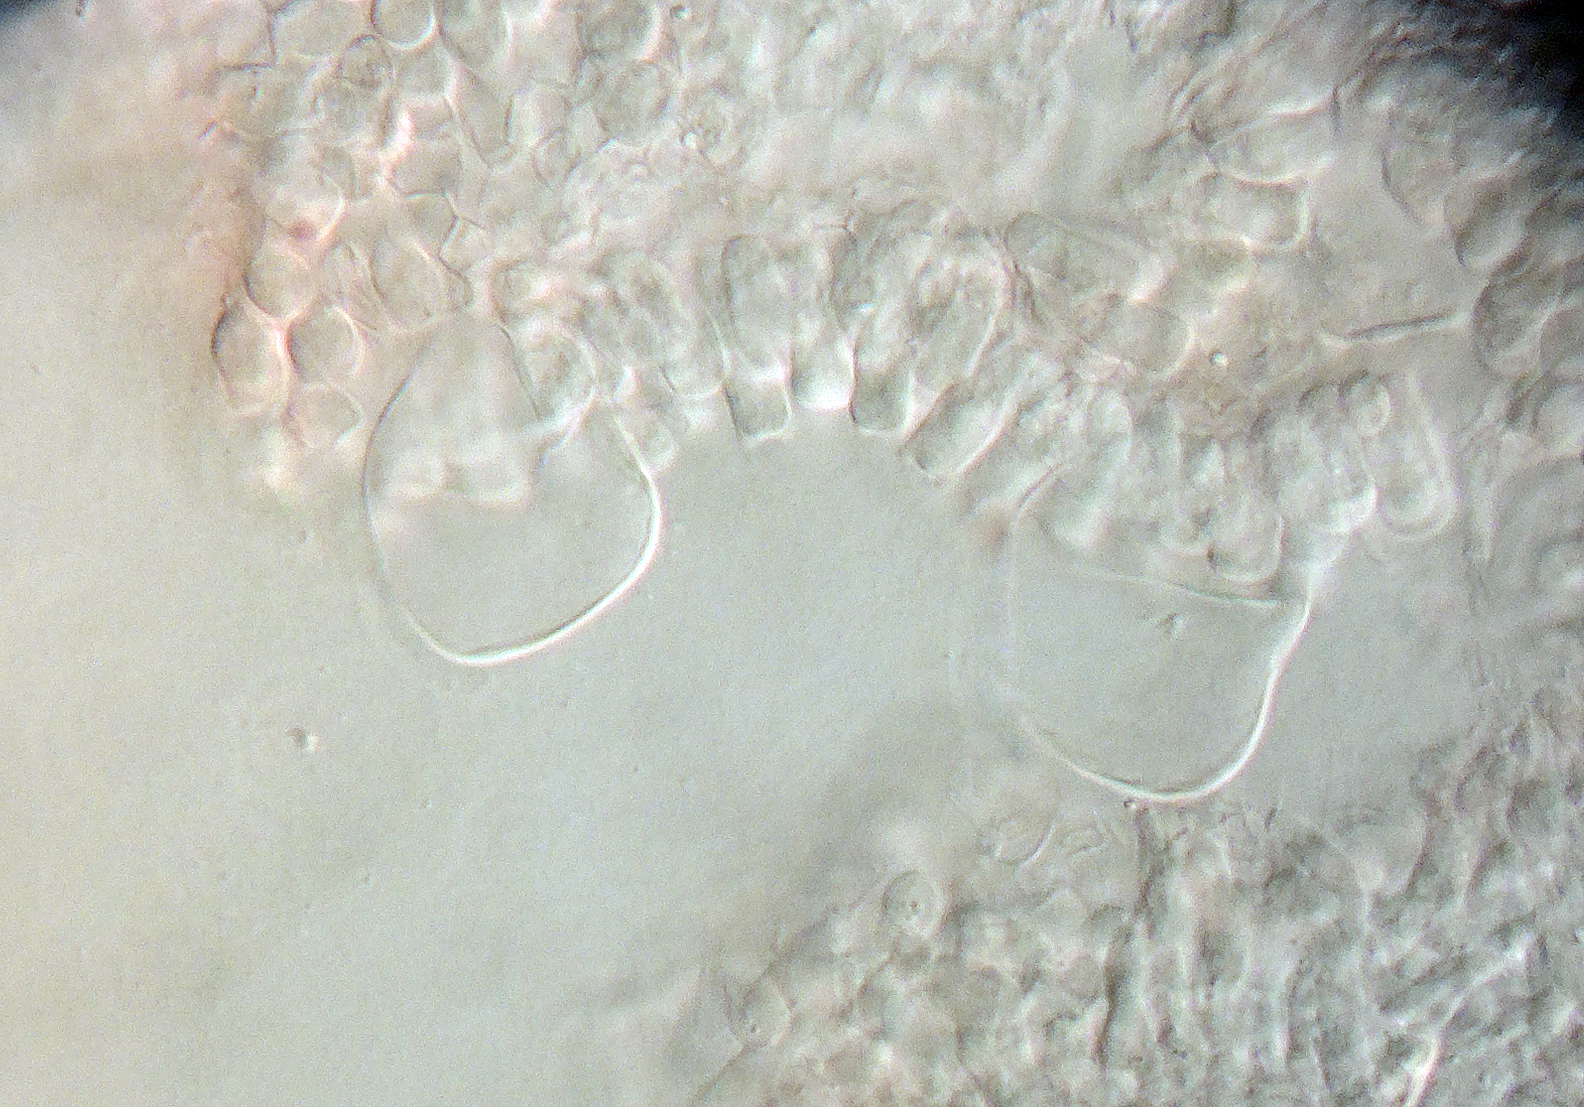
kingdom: Fungi
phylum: Basidiomycota
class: Agaricomycetes
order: Agaricales
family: Psathyrellaceae
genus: Coprinopsis
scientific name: Coprinopsis candidolanata
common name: ulden blækhat
